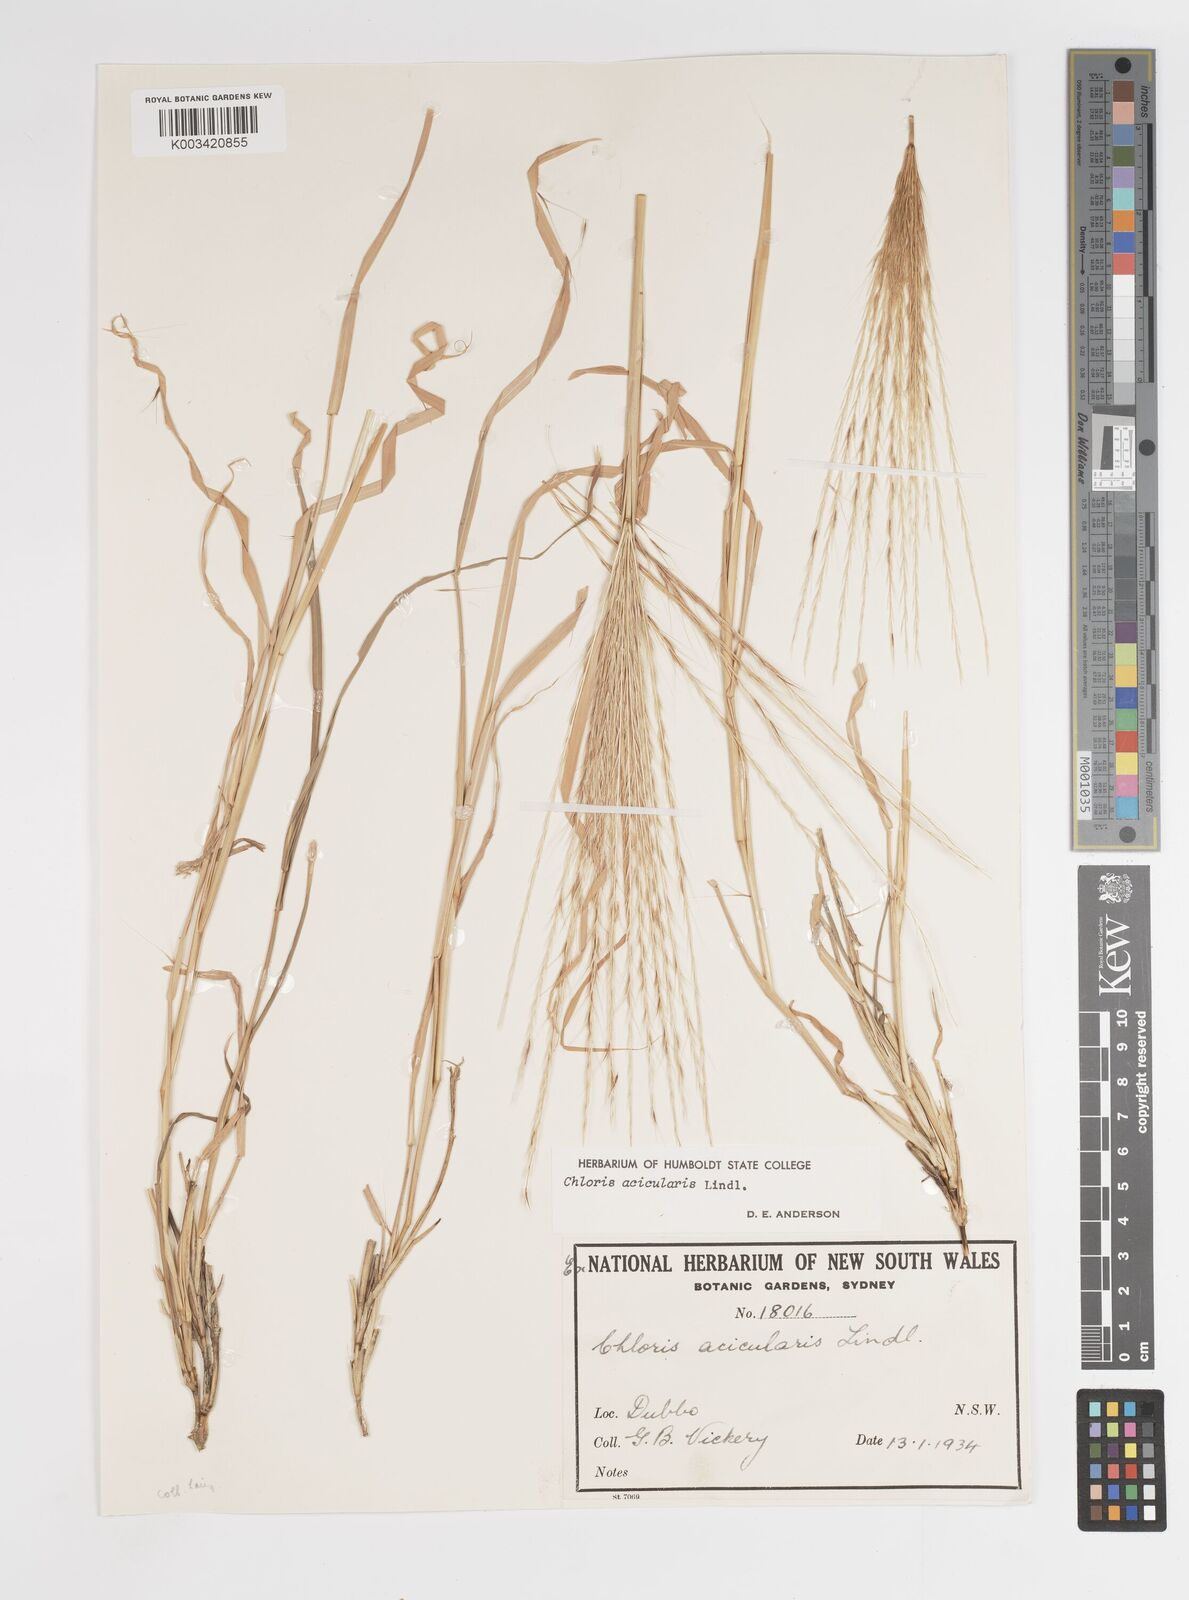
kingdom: Plantae
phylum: Tracheophyta
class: Liliopsida
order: Poales
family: Poaceae
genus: Enteropogon
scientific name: Enteropogon acicularis
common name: Curly windmill grass
